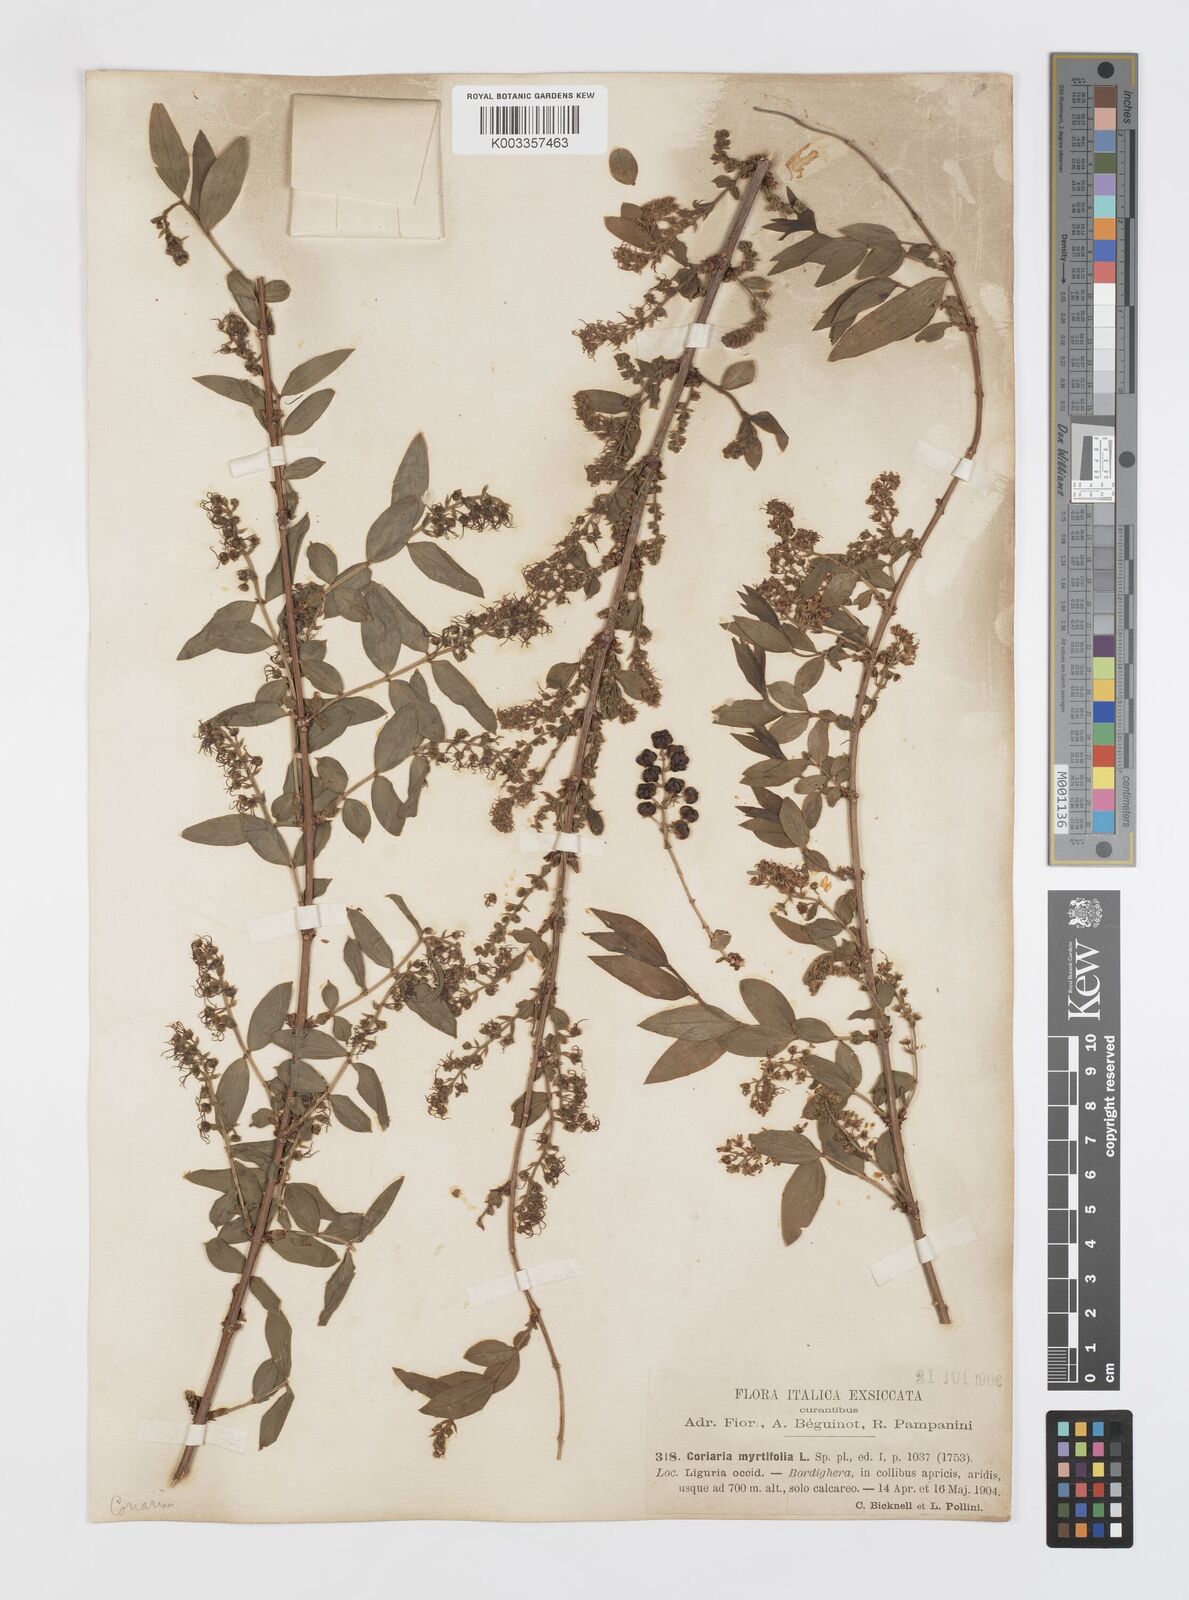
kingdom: Plantae
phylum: Tracheophyta
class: Magnoliopsida
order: Cucurbitales
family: Coriariaceae
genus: Coriaria
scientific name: Coriaria myrtifolia
